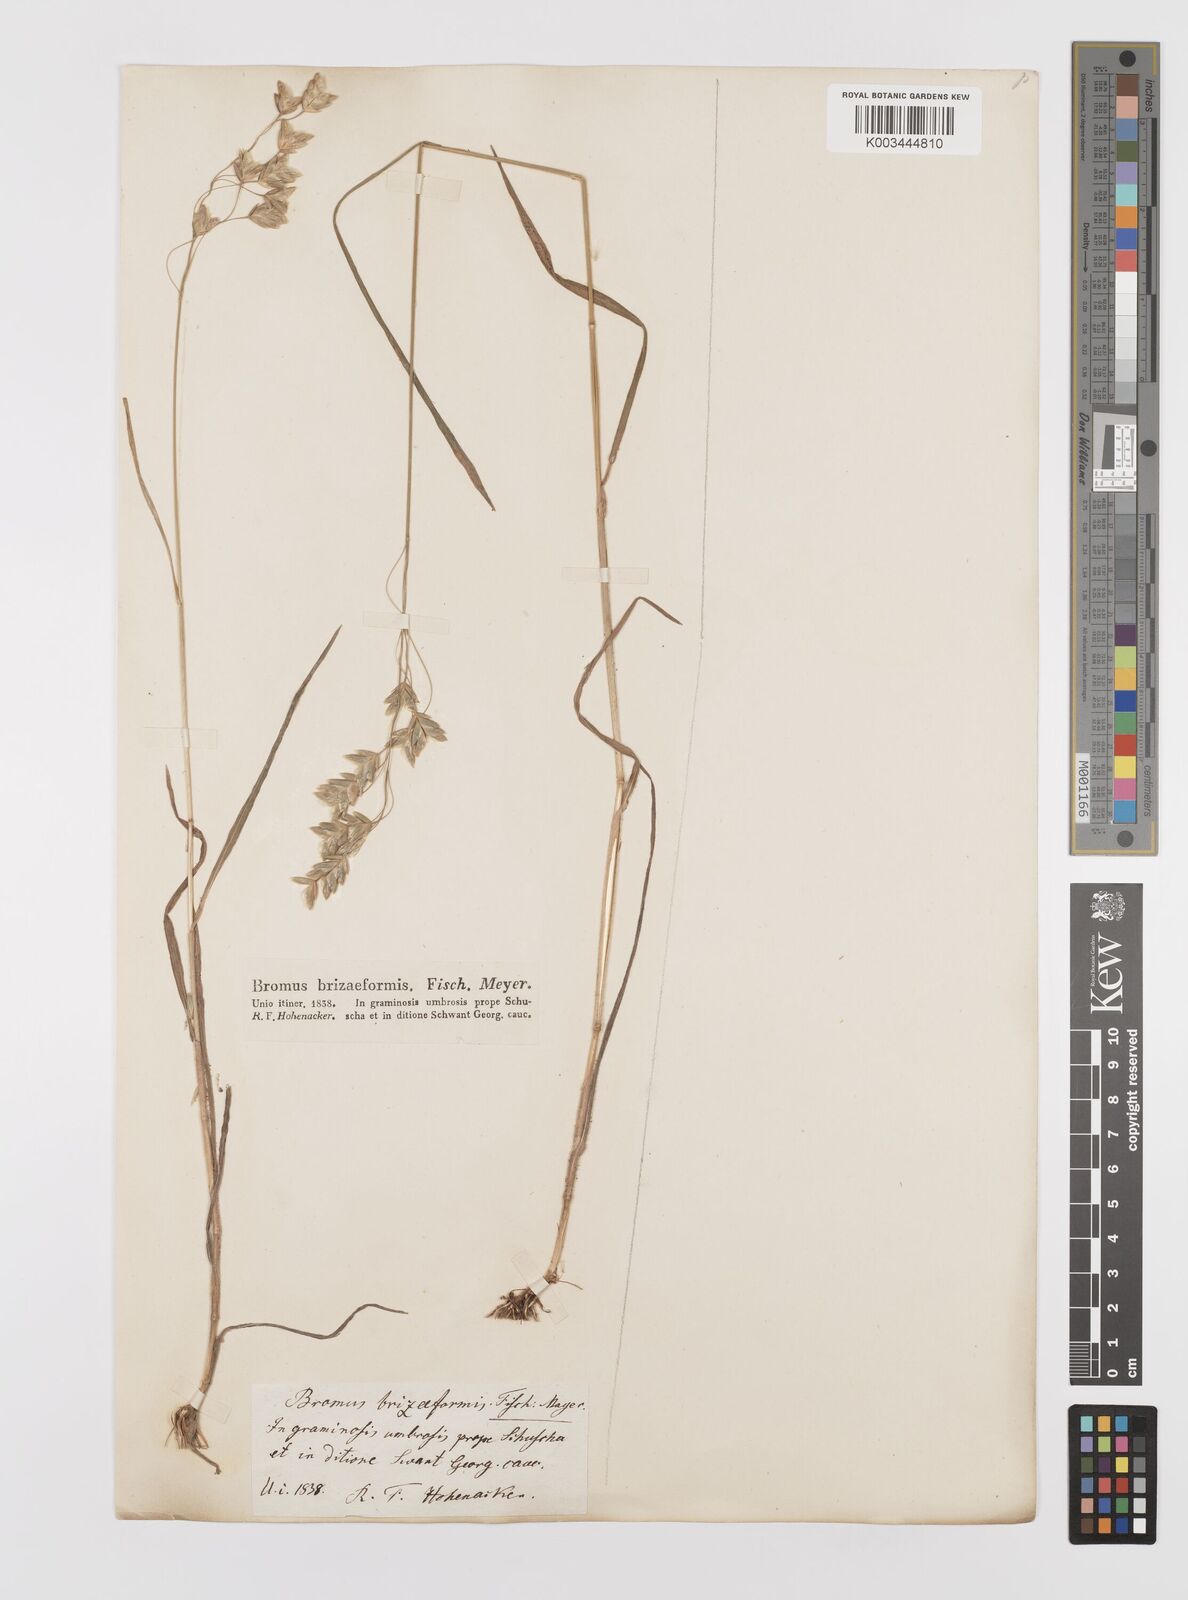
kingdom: Plantae
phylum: Tracheophyta
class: Liliopsida
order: Poales
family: Poaceae
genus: Bromus
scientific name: Bromus briziformis
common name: Rattlesnake brome
